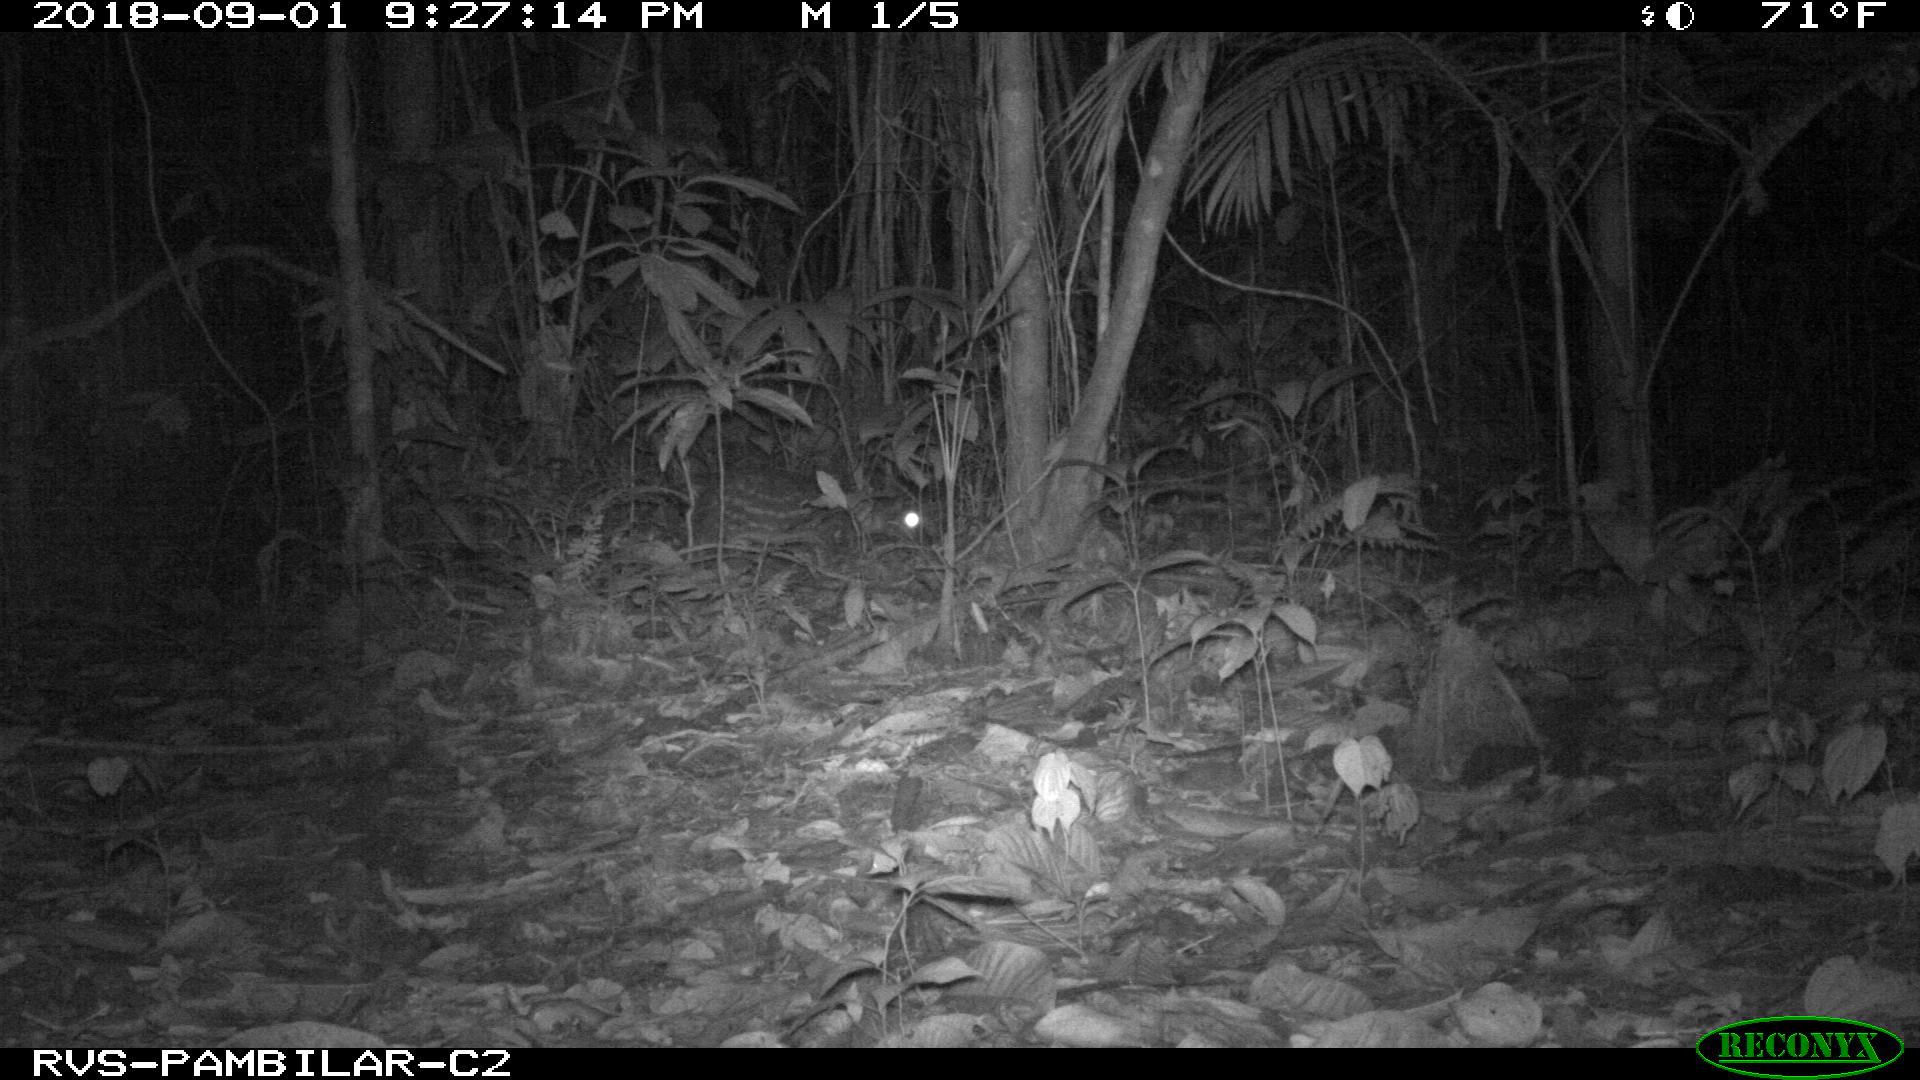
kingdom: Animalia
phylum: Chordata
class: Mammalia
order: Rodentia
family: Cuniculidae
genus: Cuniculus
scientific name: Cuniculus paca
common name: Lowland paca
